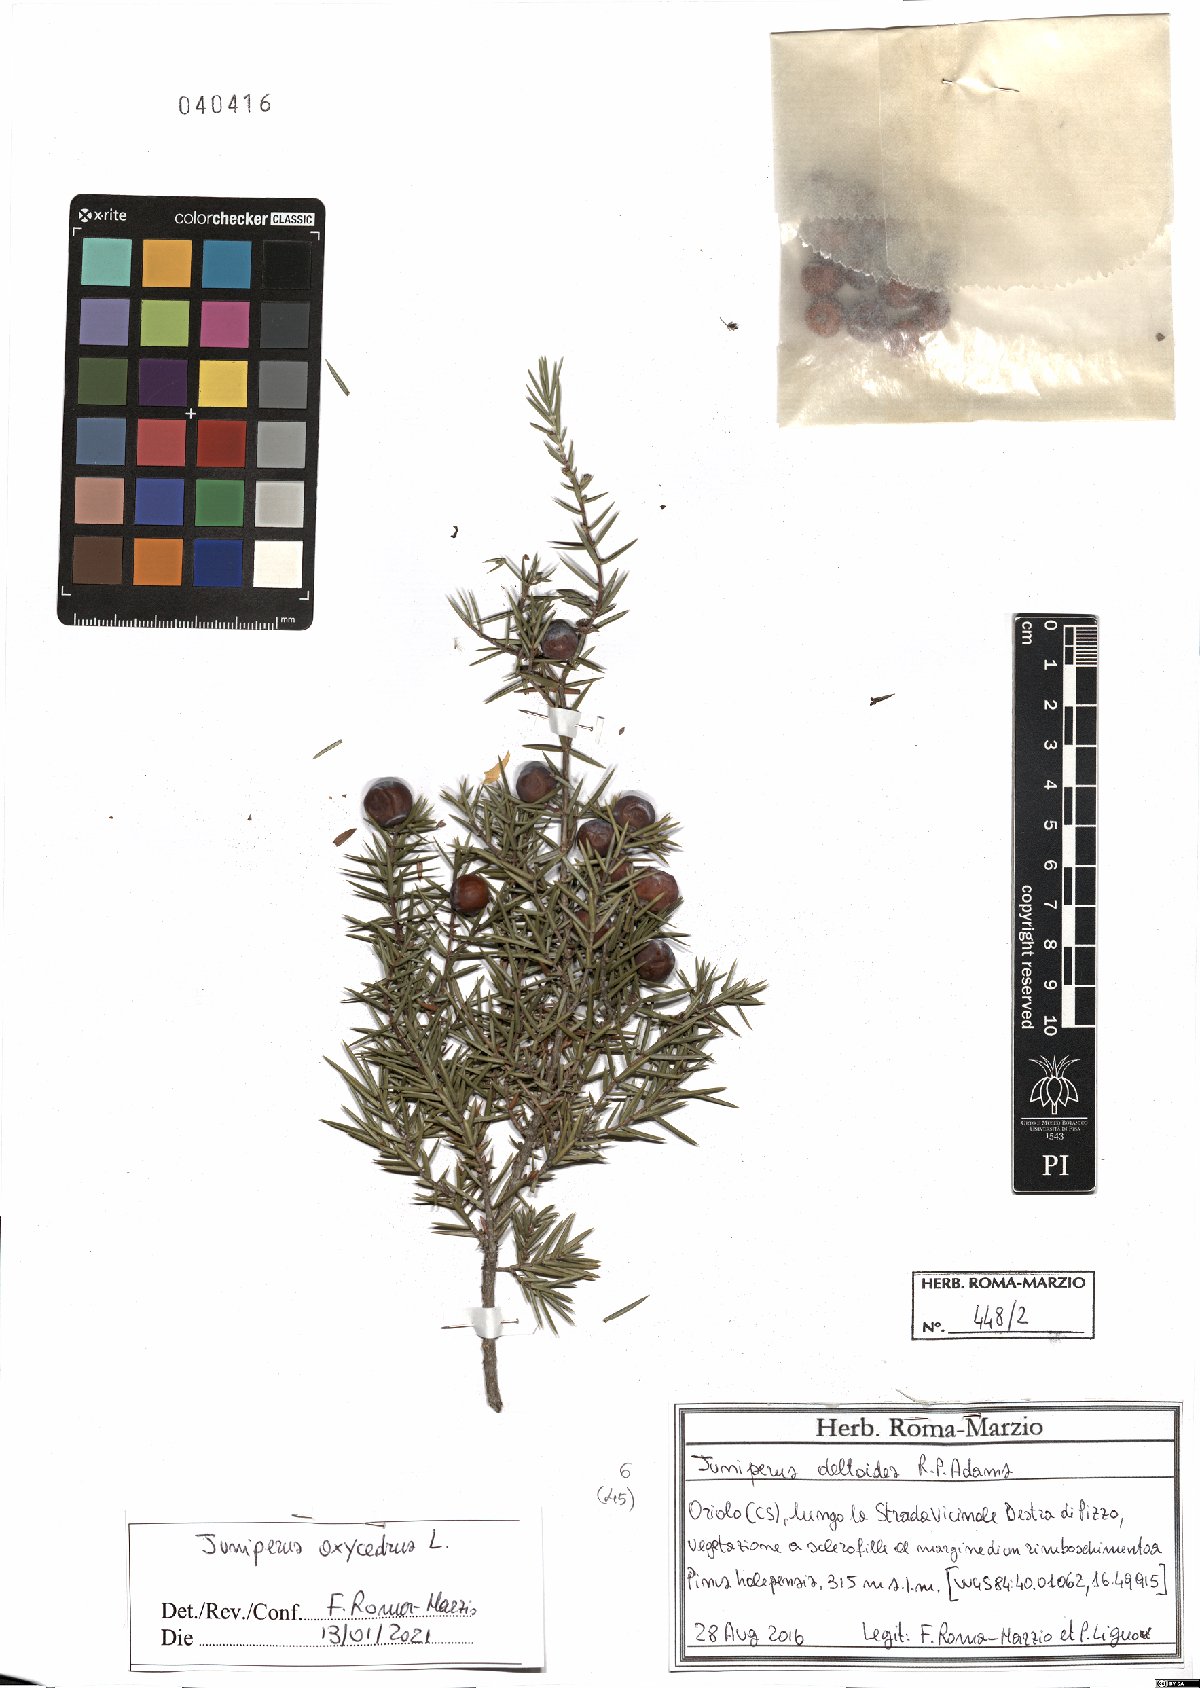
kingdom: Plantae
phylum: Tracheophyta
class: Pinopsida
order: Pinales
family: Cupressaceae
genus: Juniperus
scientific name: Juniperus oxycedrus
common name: Prickly juniper
